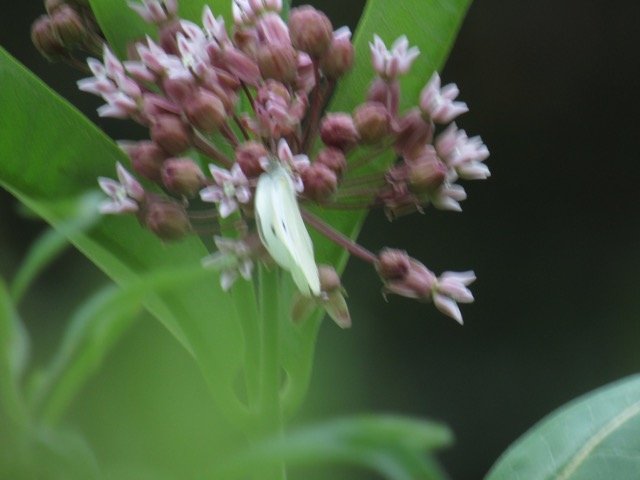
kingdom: Animalia
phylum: Arthropoda
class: Insecta
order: Lepidoptera
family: Pieridae
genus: Pieris
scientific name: Pieris rapae
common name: Cabbage White
